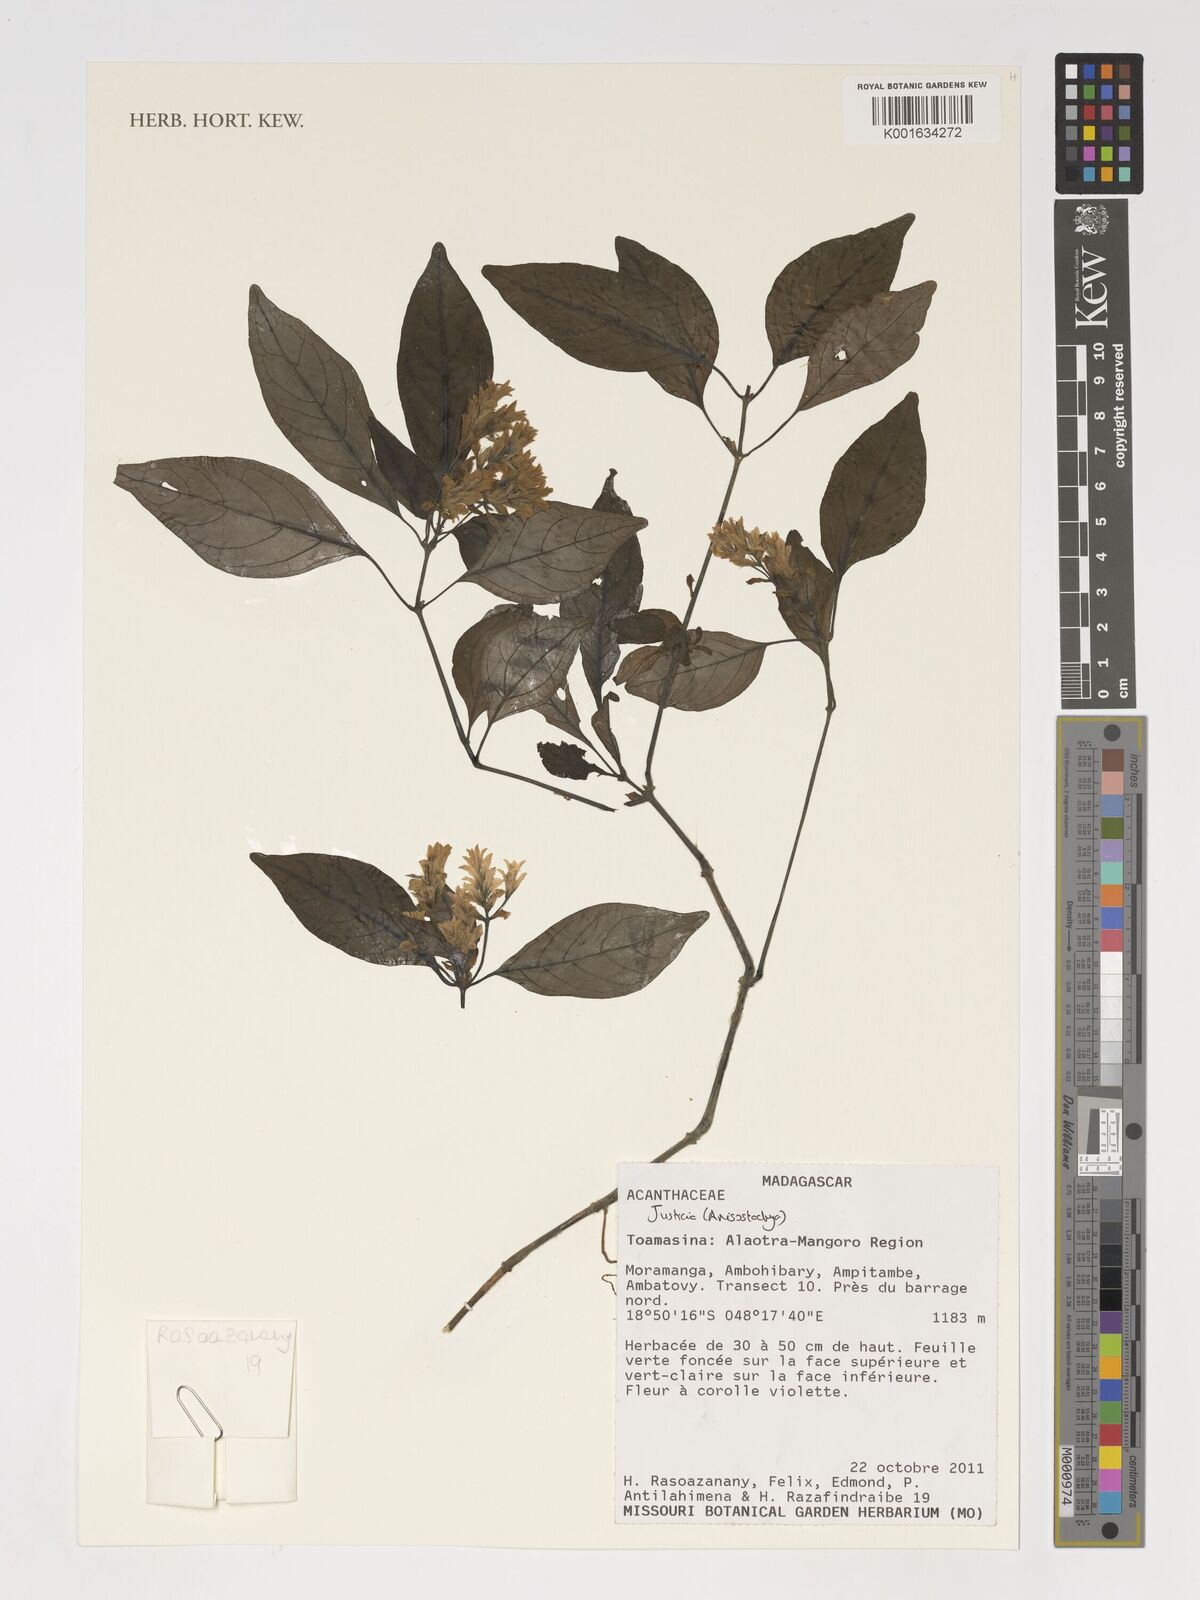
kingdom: Plantae
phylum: Tracheophyta
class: Magnoliopsida
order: Lamiales
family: Acanthaceae
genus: Justicia
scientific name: Justicia
